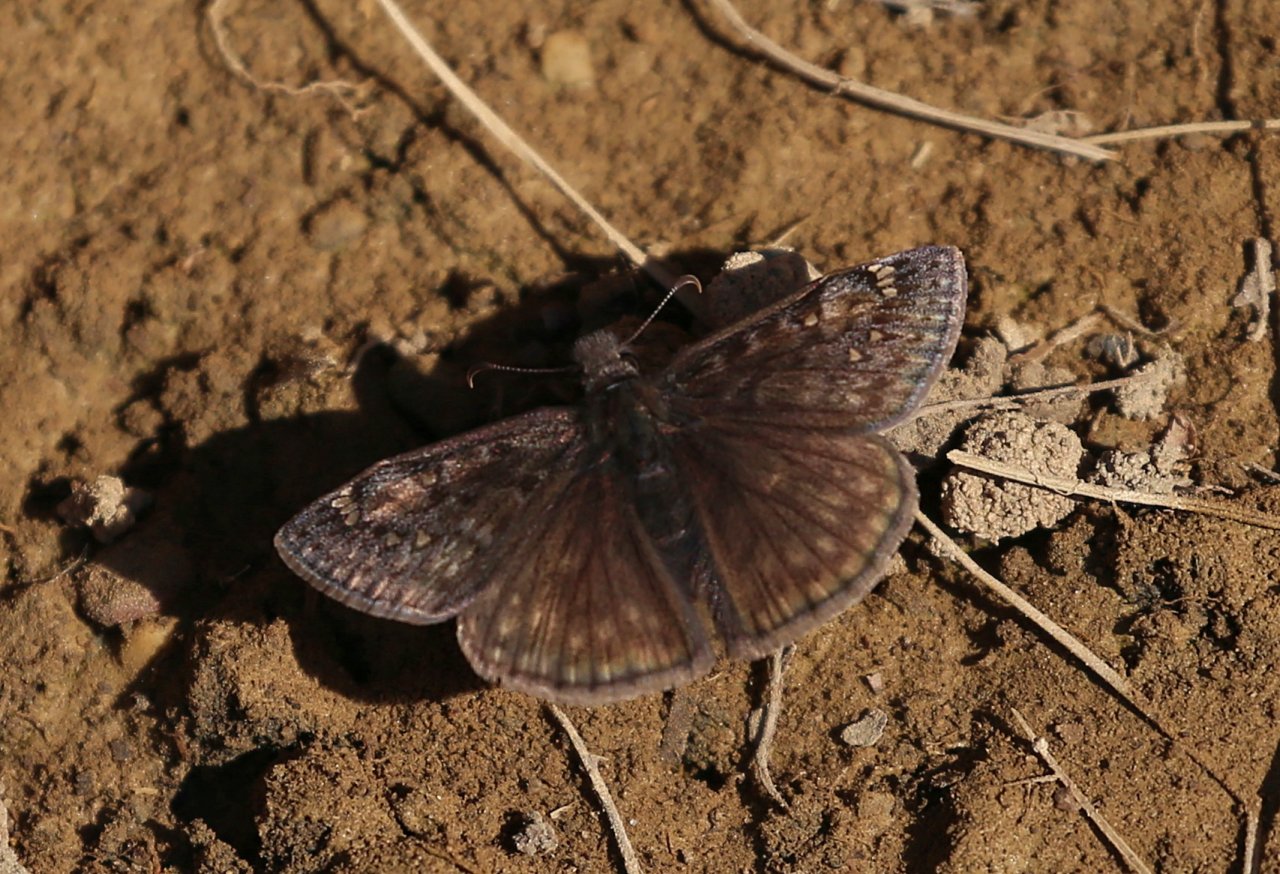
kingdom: Animalia
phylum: Arthropoda
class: Insecta
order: Lepidoptera
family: Hesperiidae
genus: Gesta
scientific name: Gesta
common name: Juvenal's Duskywing
